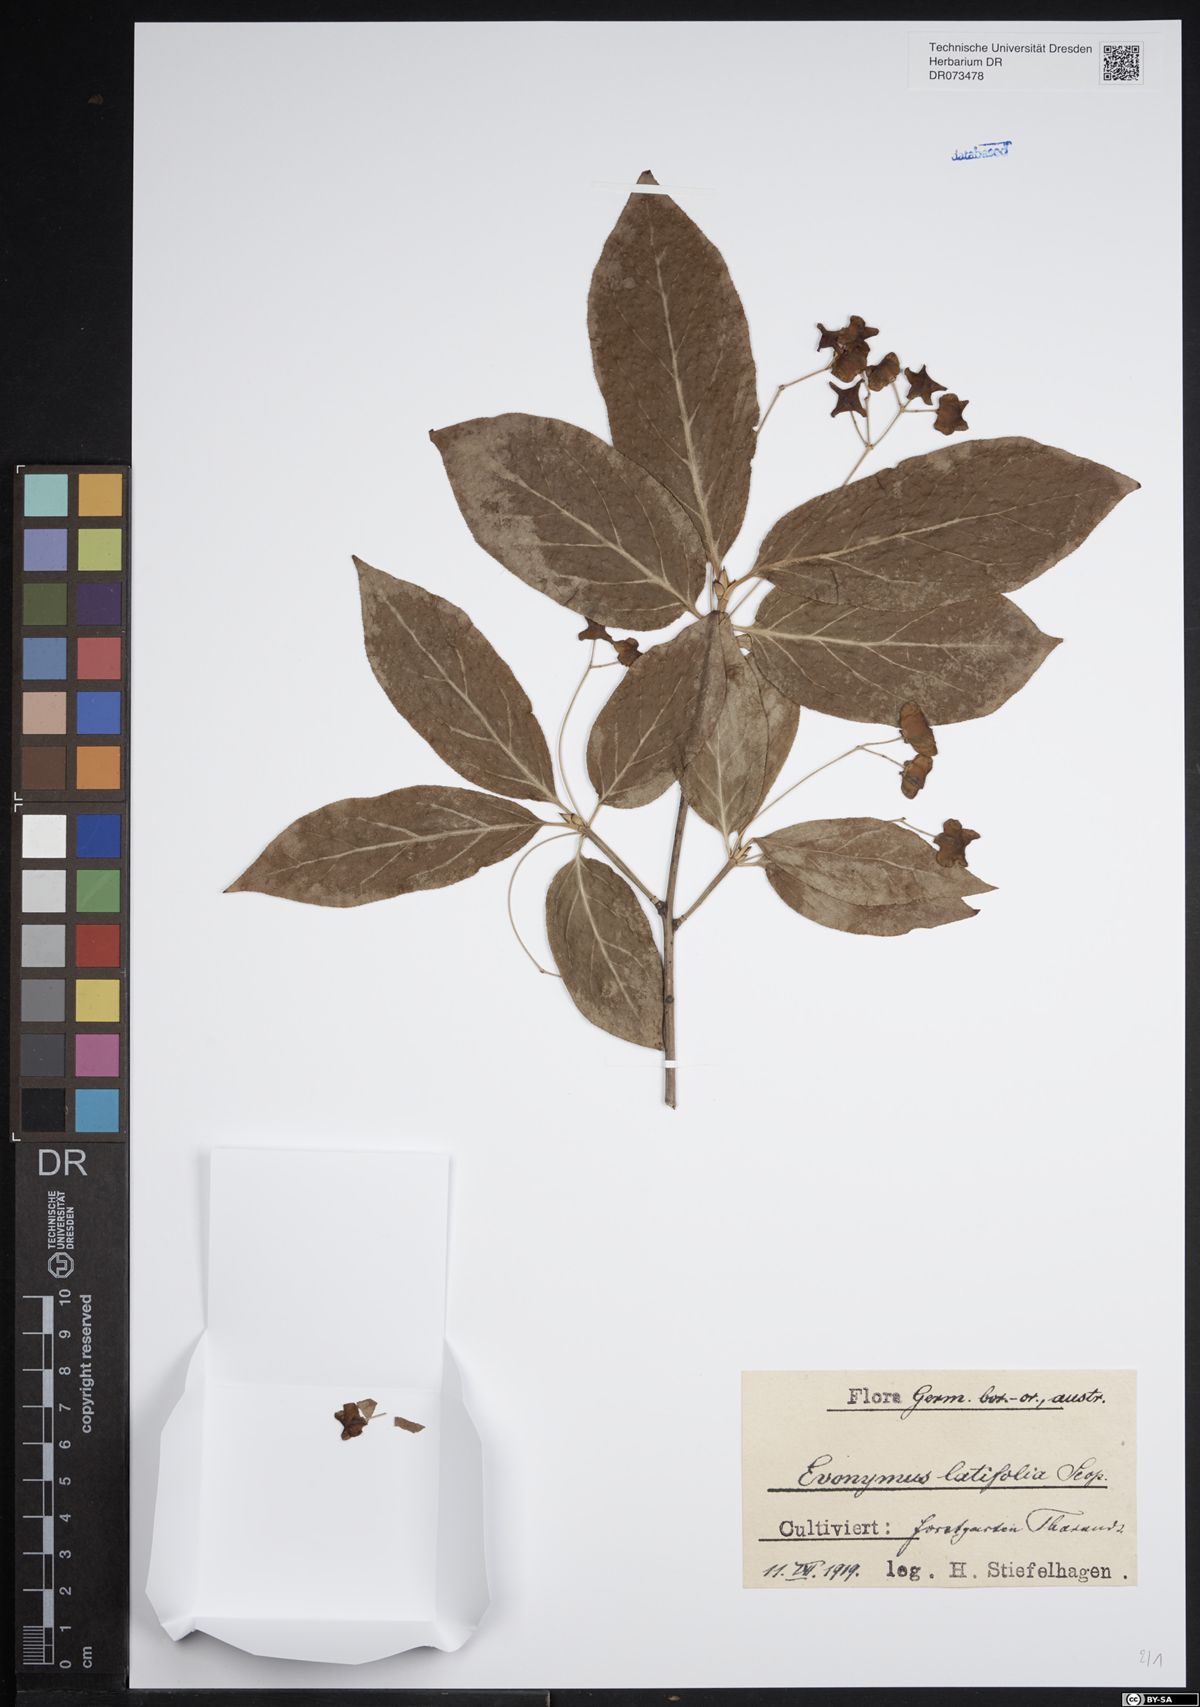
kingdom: Plantae
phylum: Tracheophyta
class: Magnoliopsida
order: Celastrales
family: Celastraceae
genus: Euonymus
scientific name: Euonymus latifolius
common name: Large-leaved spindle
